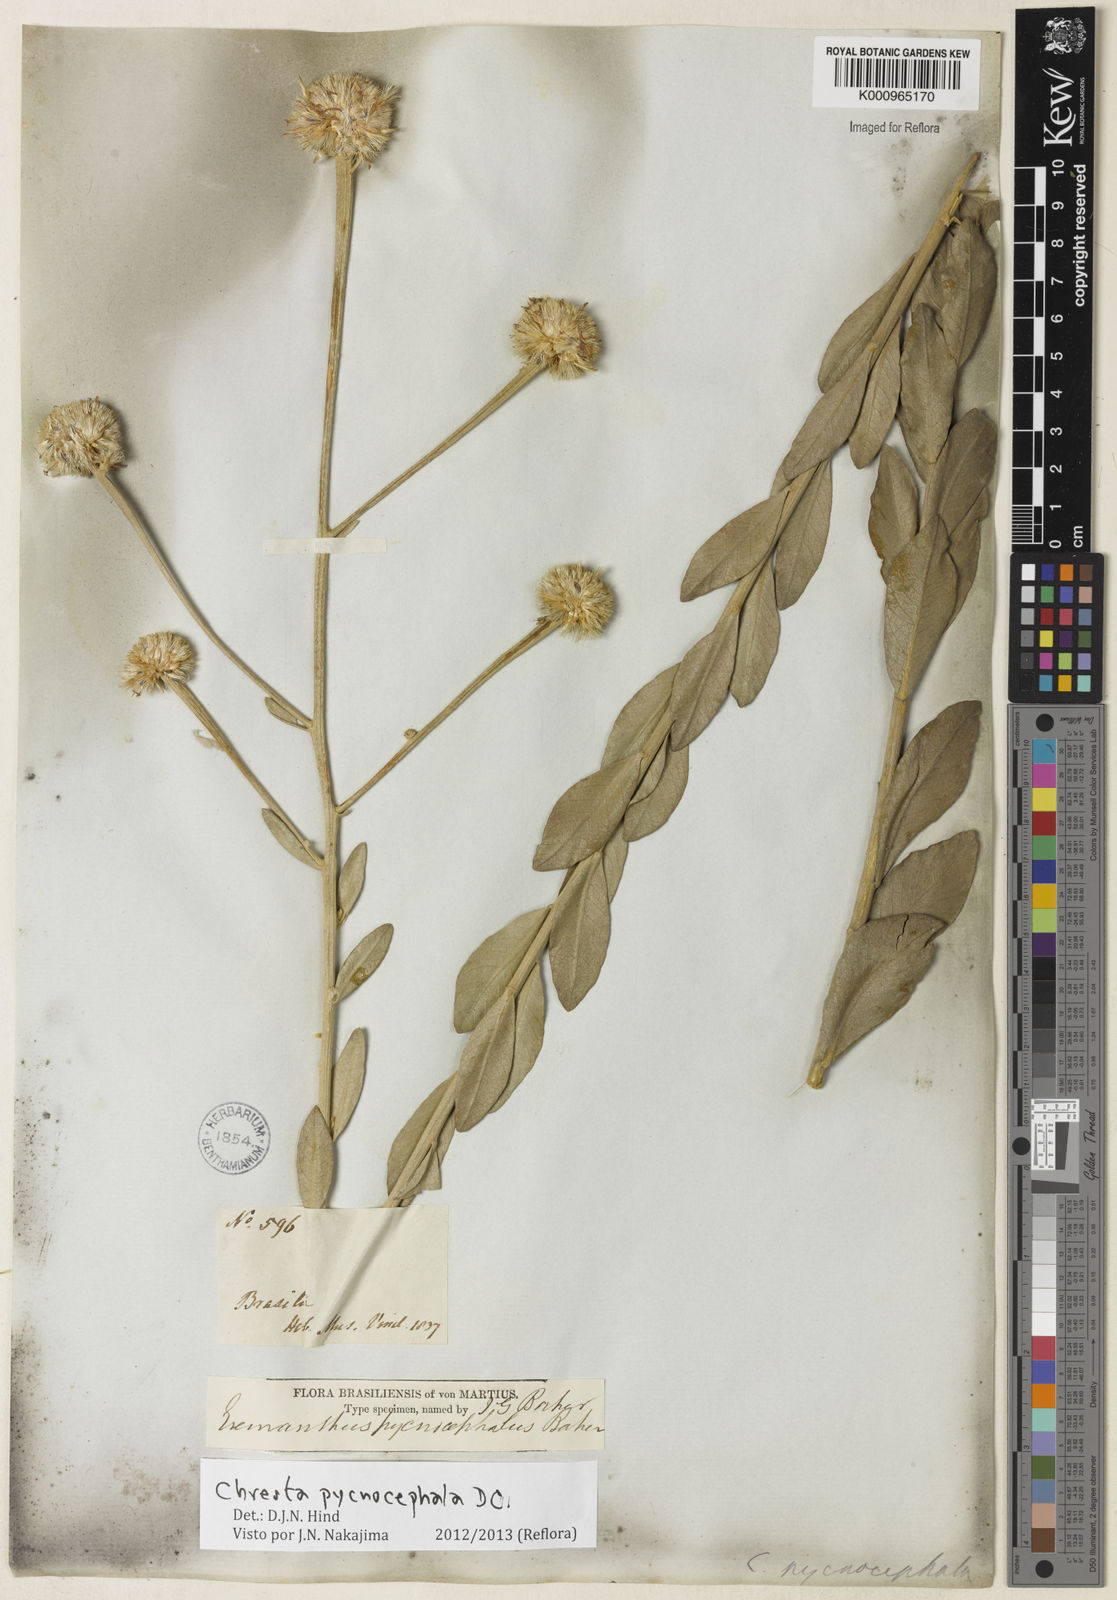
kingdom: Plantae
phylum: Tracheophyta
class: Magnoliopsida
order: Asterales
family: Asteraceae
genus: Chresta
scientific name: Chresta pycnocephala
